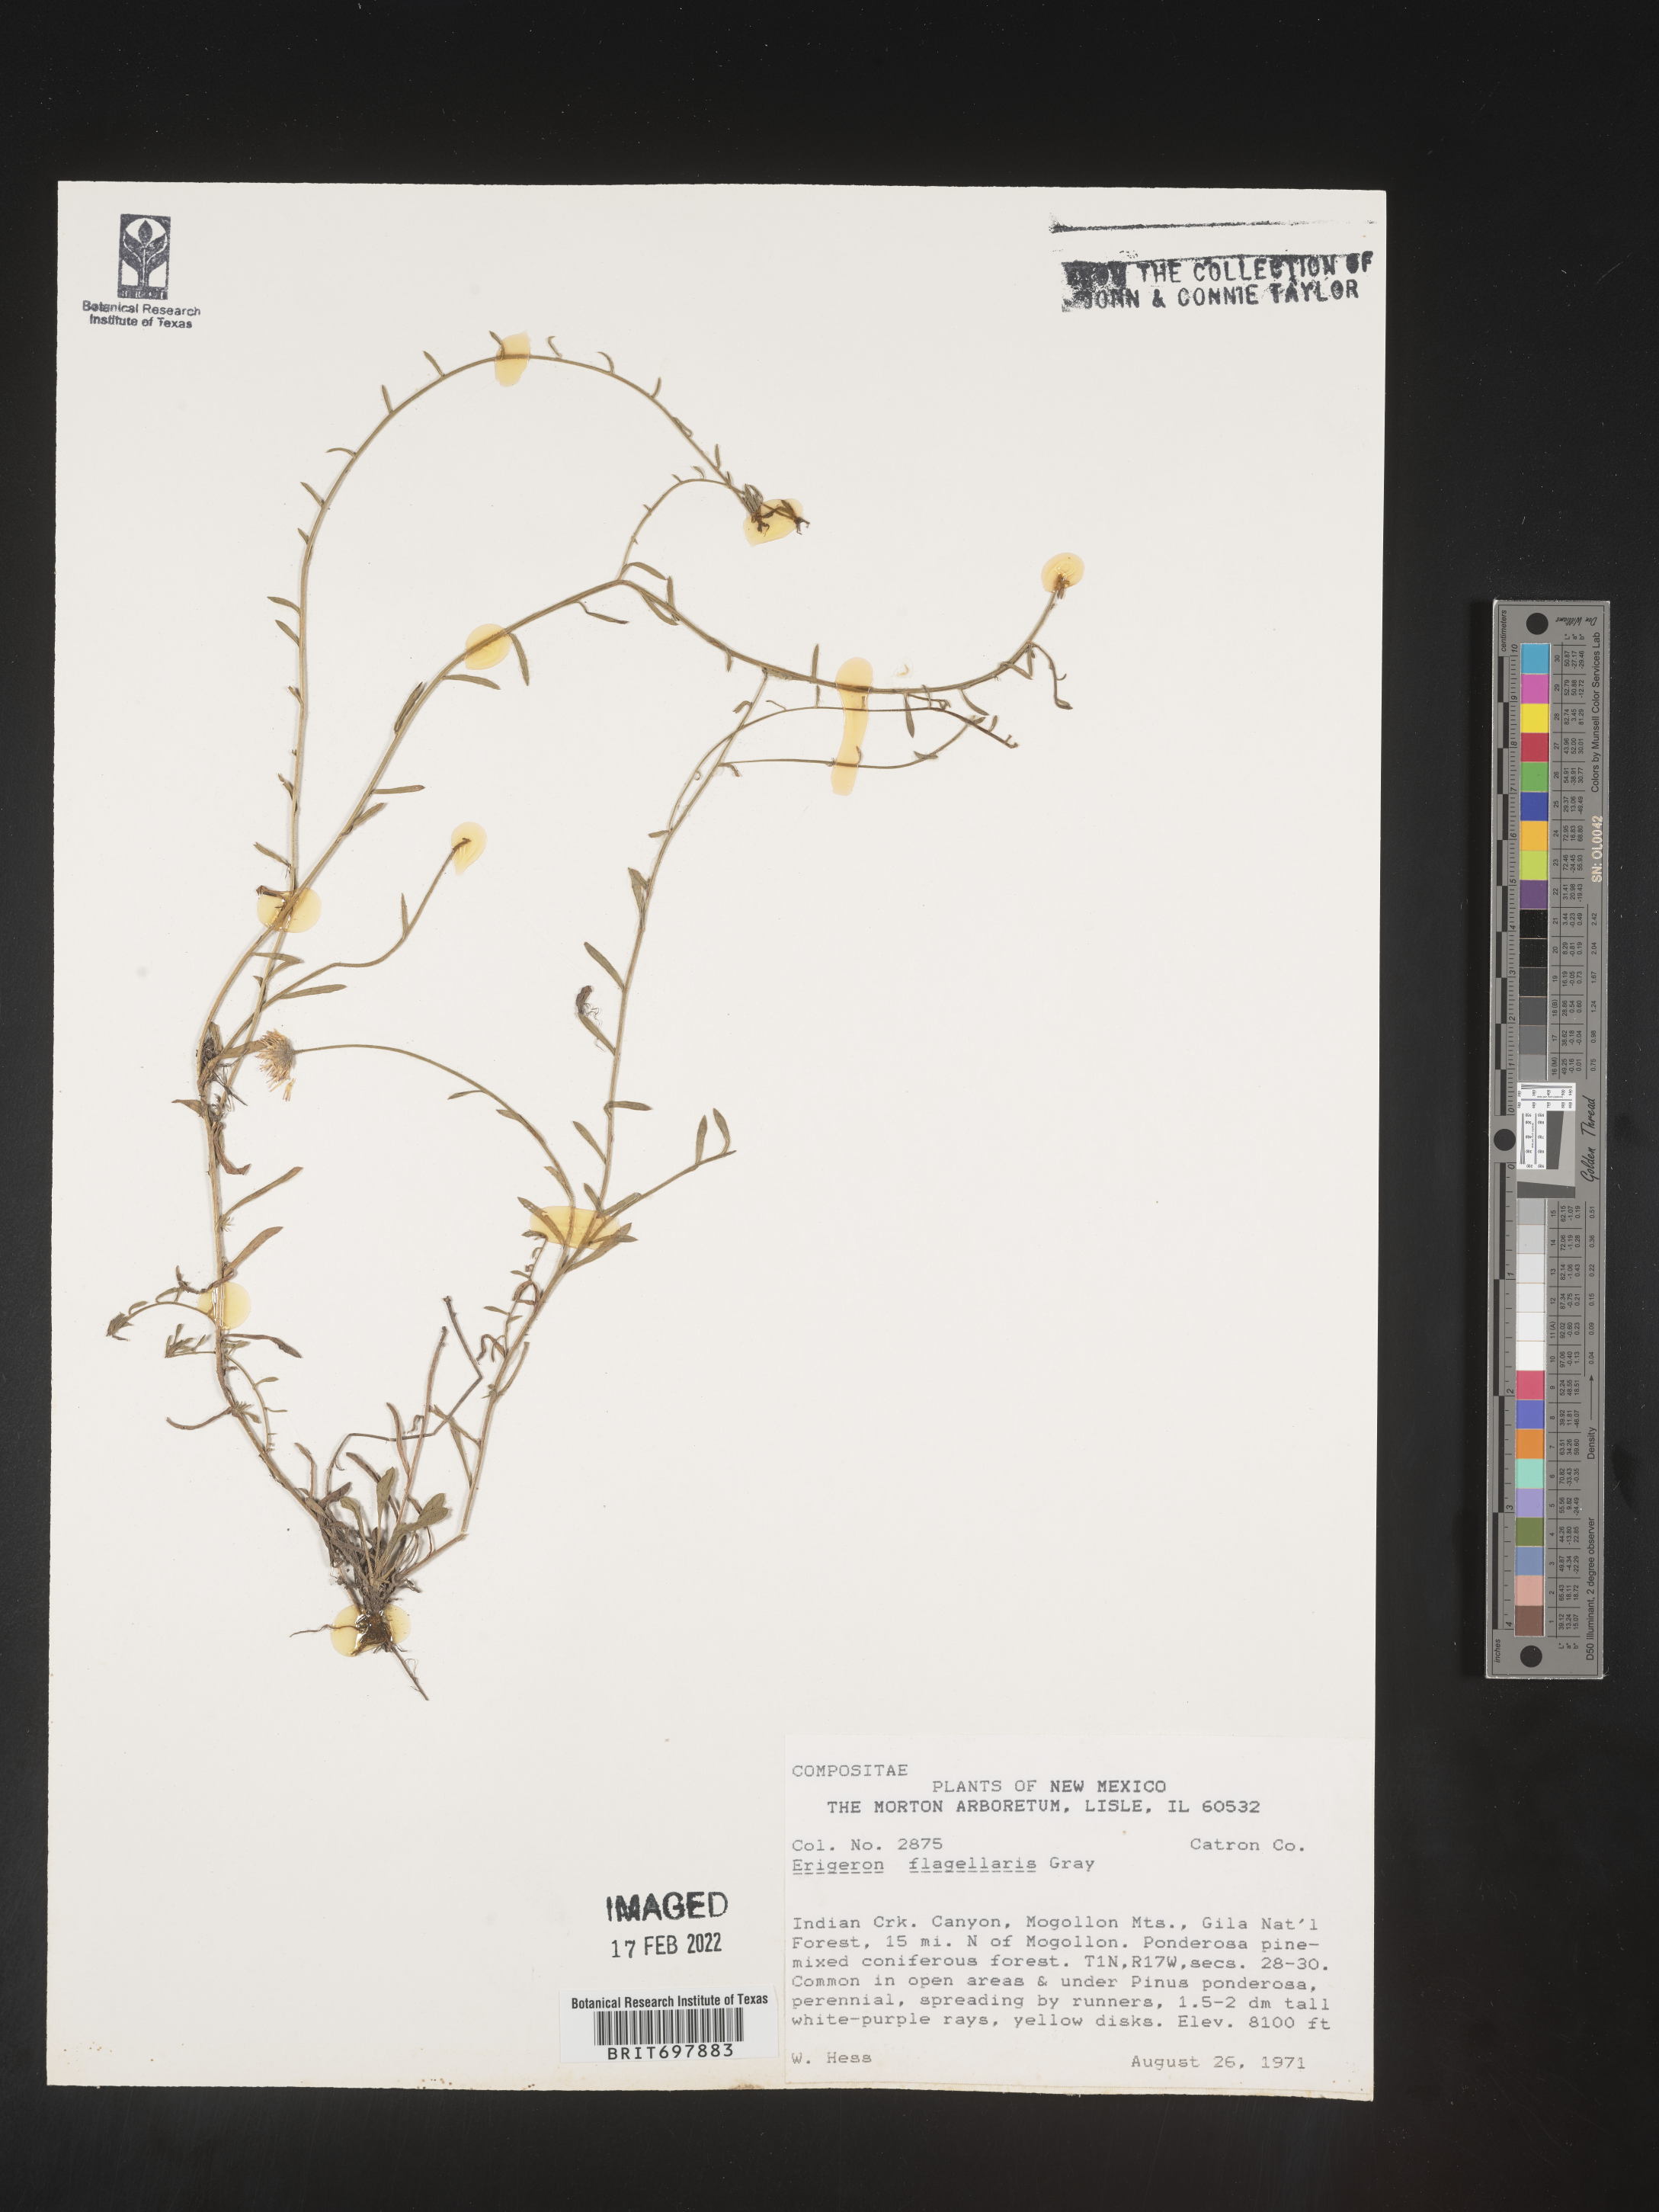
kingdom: Plantae
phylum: Tracheophyta
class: Magnoliopsida
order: Asterales
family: Asteraceae
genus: Erigeron
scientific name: Erigeron flagellaris
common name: Running fleabane
